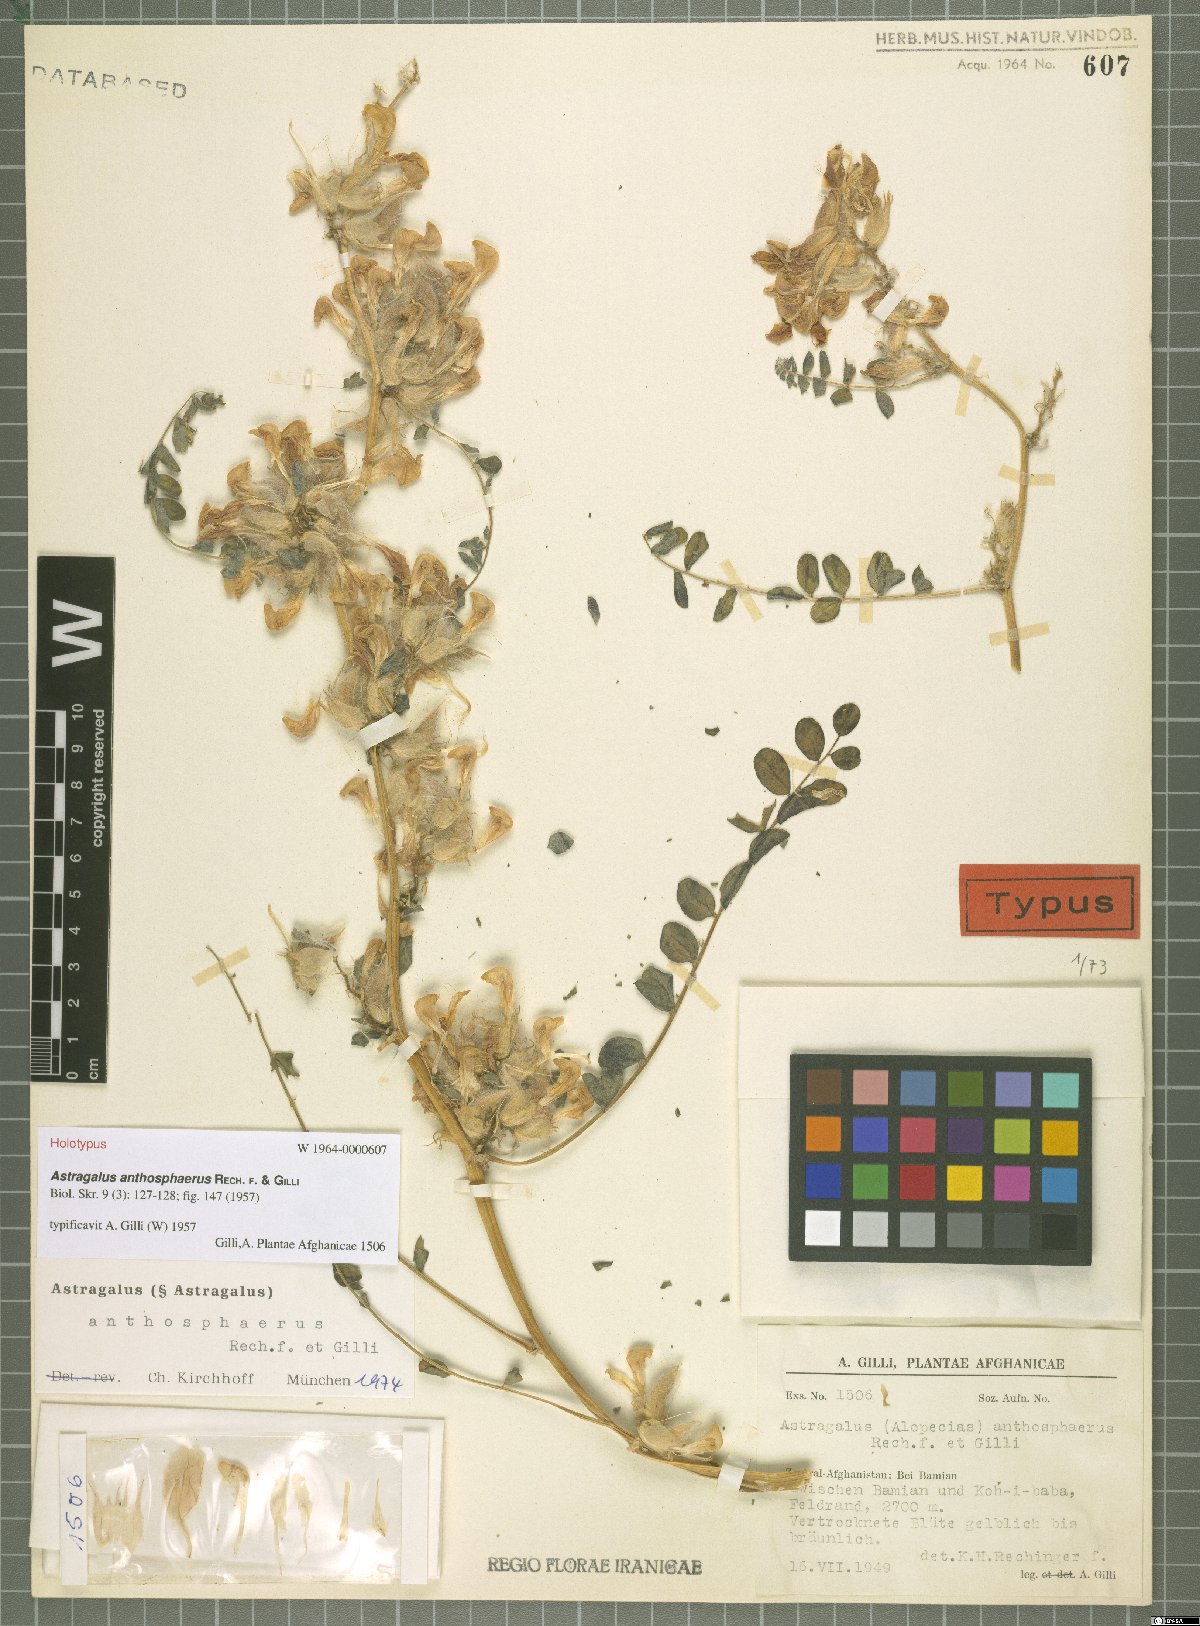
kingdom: Plantae
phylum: Tracheophyta
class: Magnoliopsida
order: Fabales
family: Fabaceae
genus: Astragalus
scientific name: Astragalus anthosphaerus
